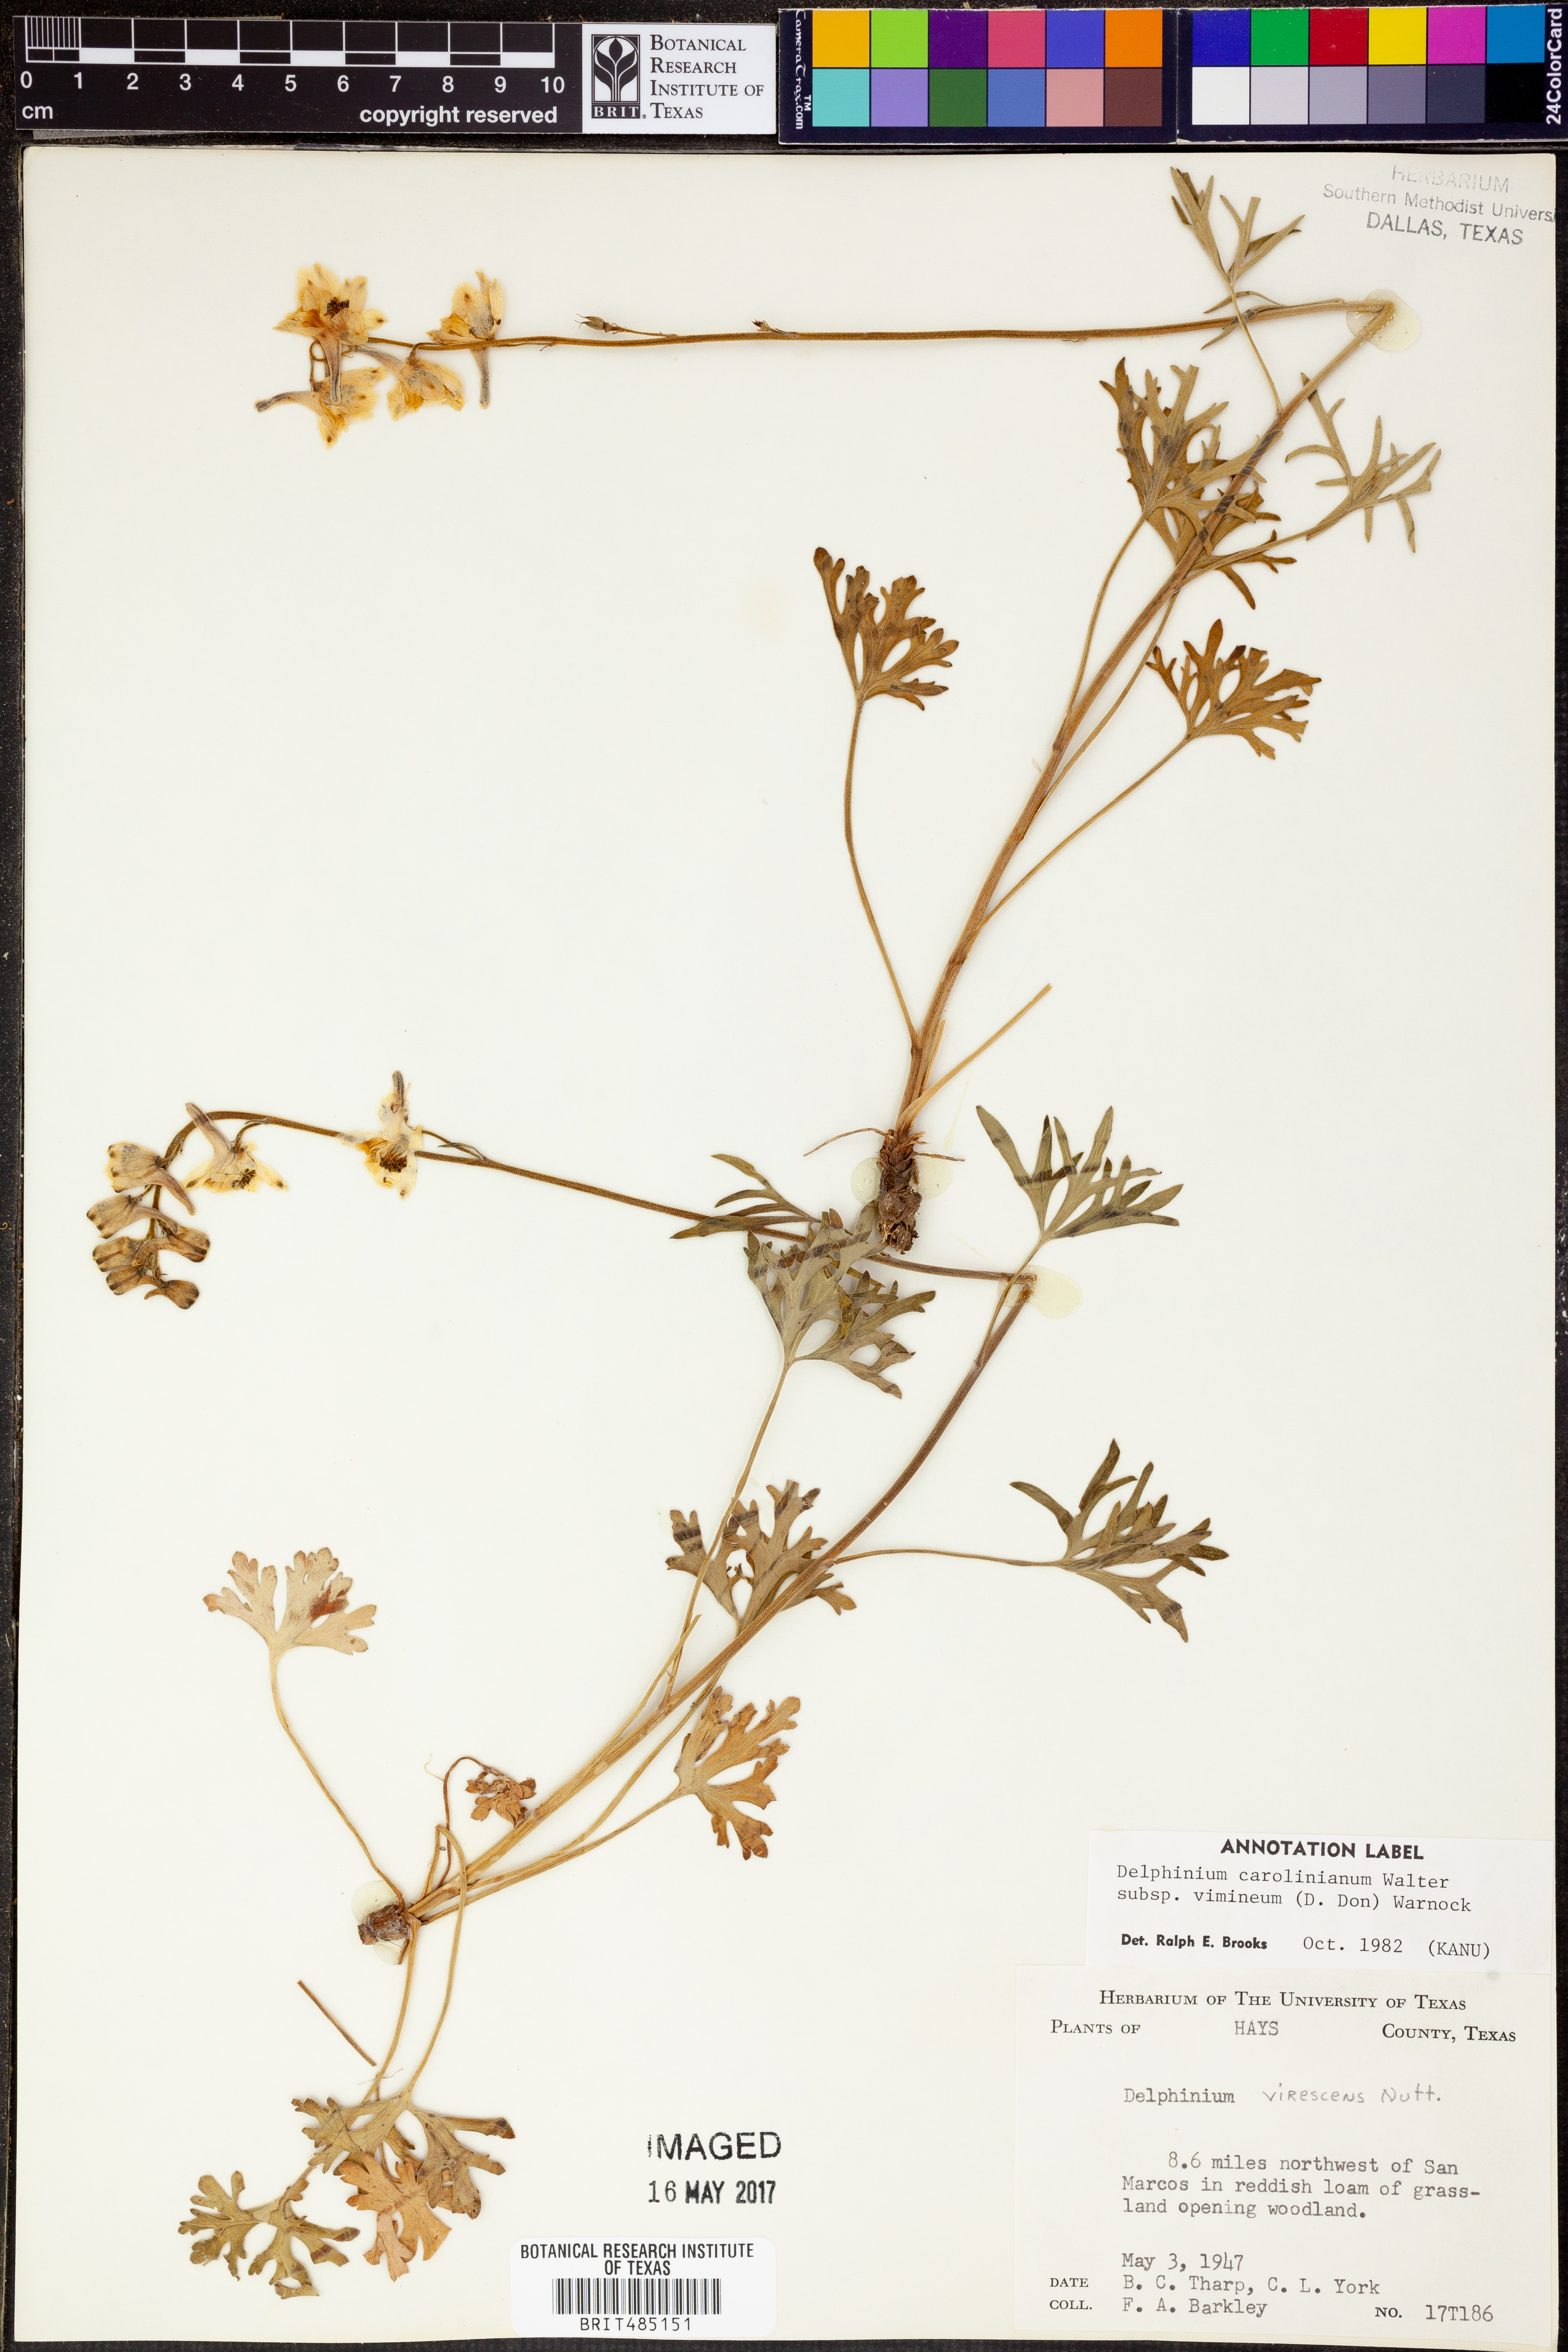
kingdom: Plantae
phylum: Tracheophyta
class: Magnoliopsida
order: Ranunculales
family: Ranunculaceae
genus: Delphinium
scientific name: Delphinium carolinianum
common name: Carolina larkspur
